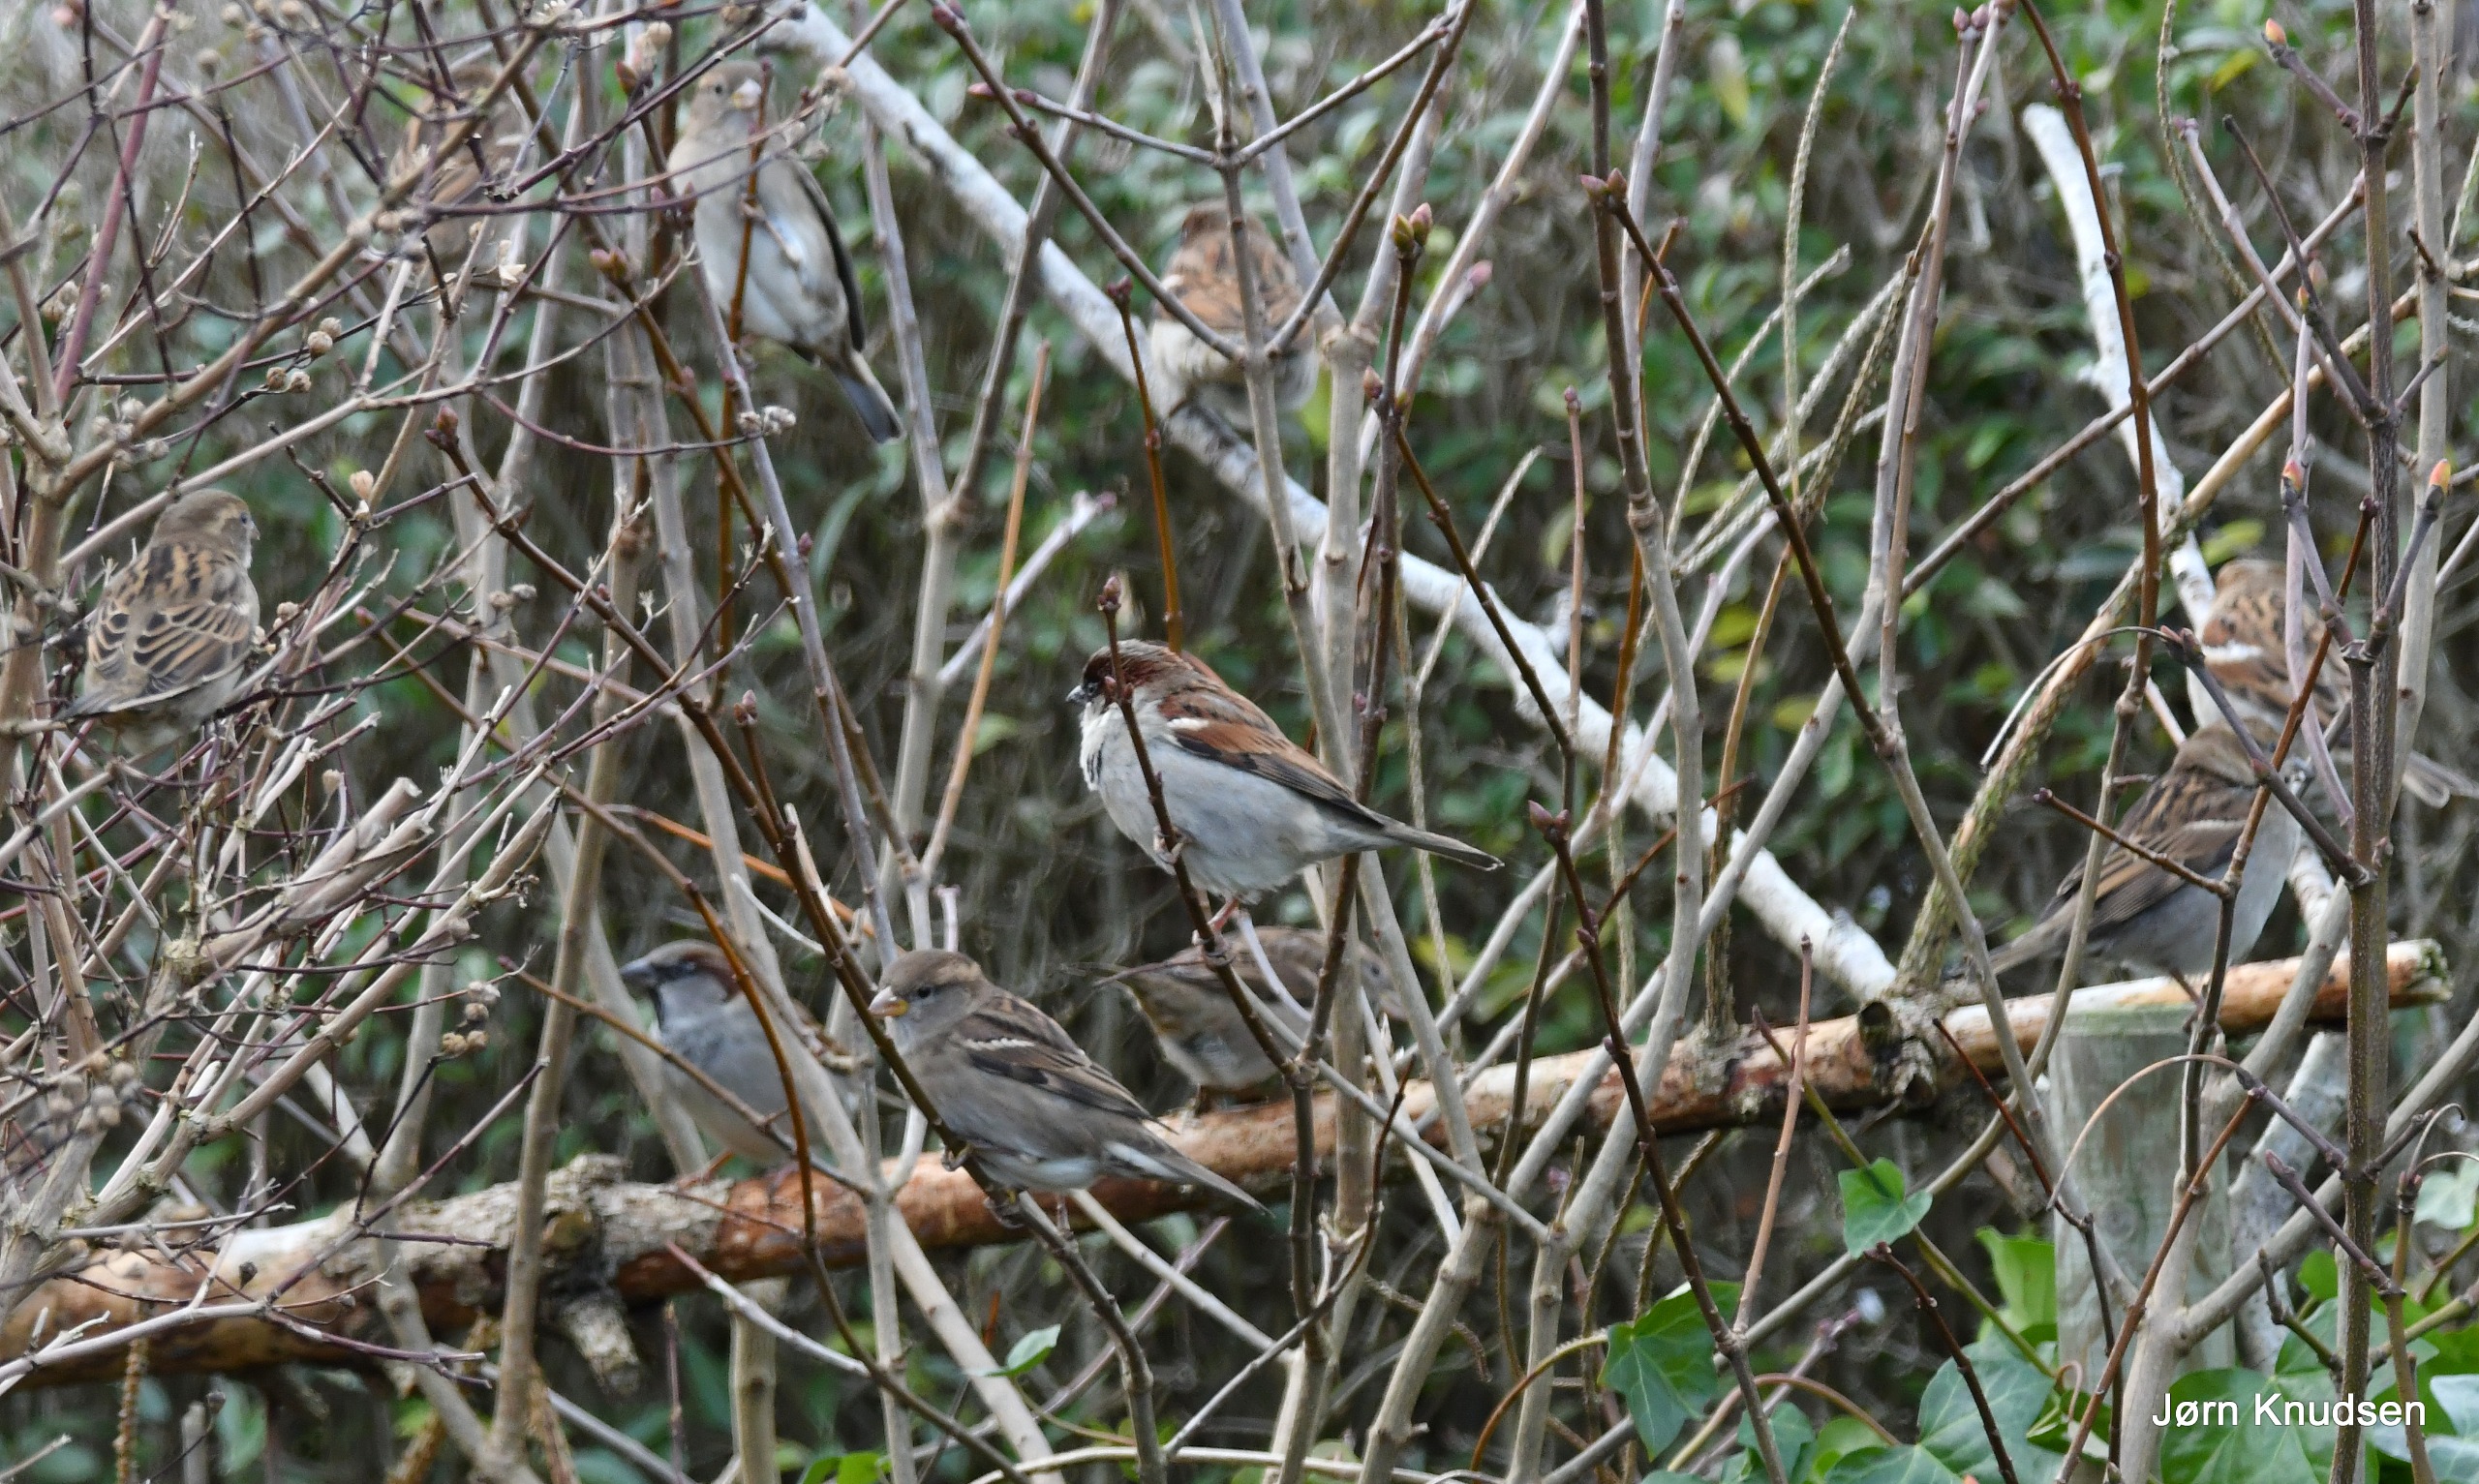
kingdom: Animalia
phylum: Chordata
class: Aves
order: Passeriformes
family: Passeridae
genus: Passer
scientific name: Passer domesticus
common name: Gråspurv
